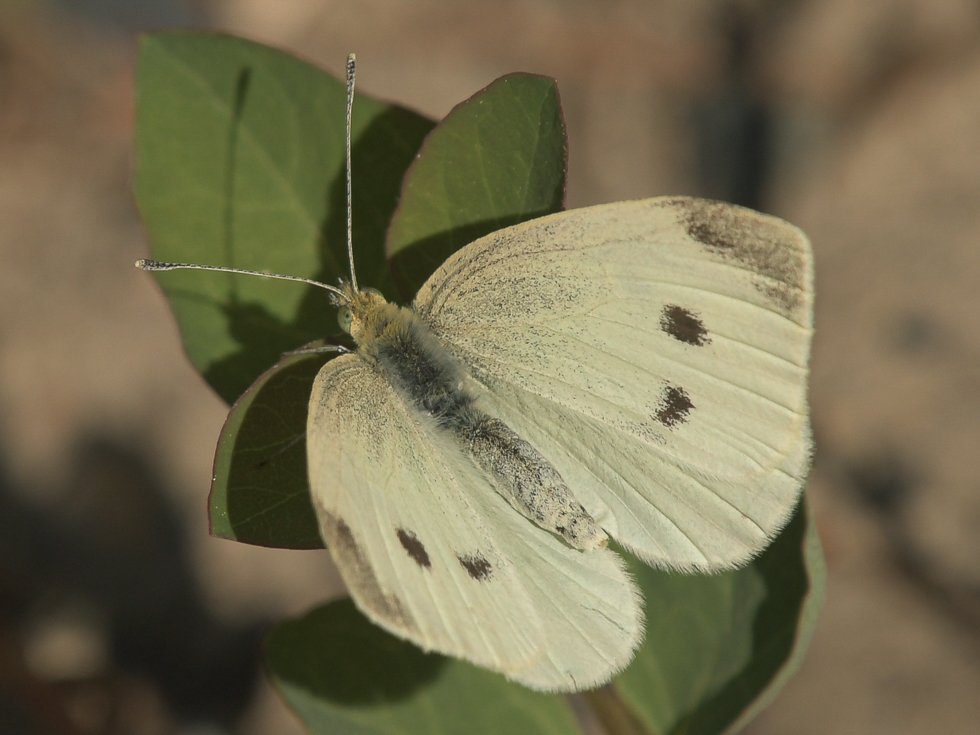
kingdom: Animalia
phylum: Arthropoda
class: Insecta
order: Lepidoptera
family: Pieridae
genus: Pieris
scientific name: Pieris rapae
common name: Cabbage White
